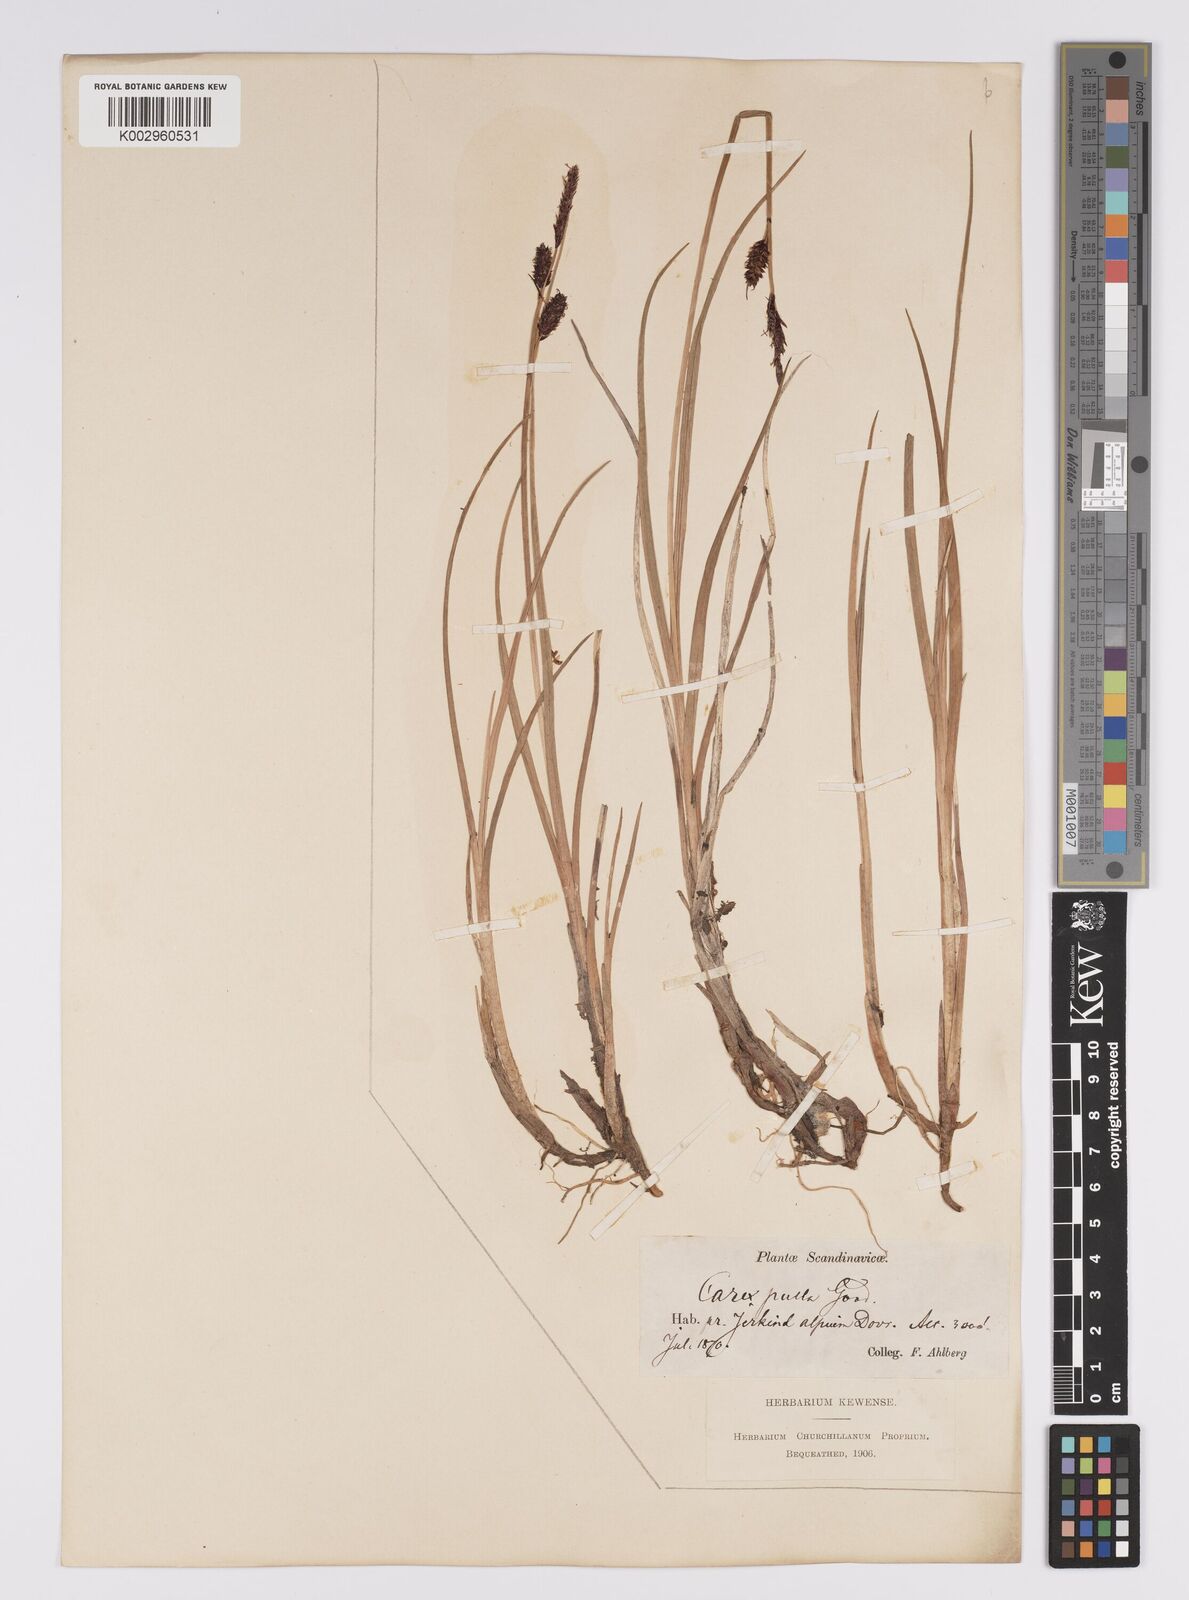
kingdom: Plantae
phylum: Tracheophyta
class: Liliopsida
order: Poales
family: Cyperaceae
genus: Carex
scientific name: Carex saxatilis
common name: Russet sedge
